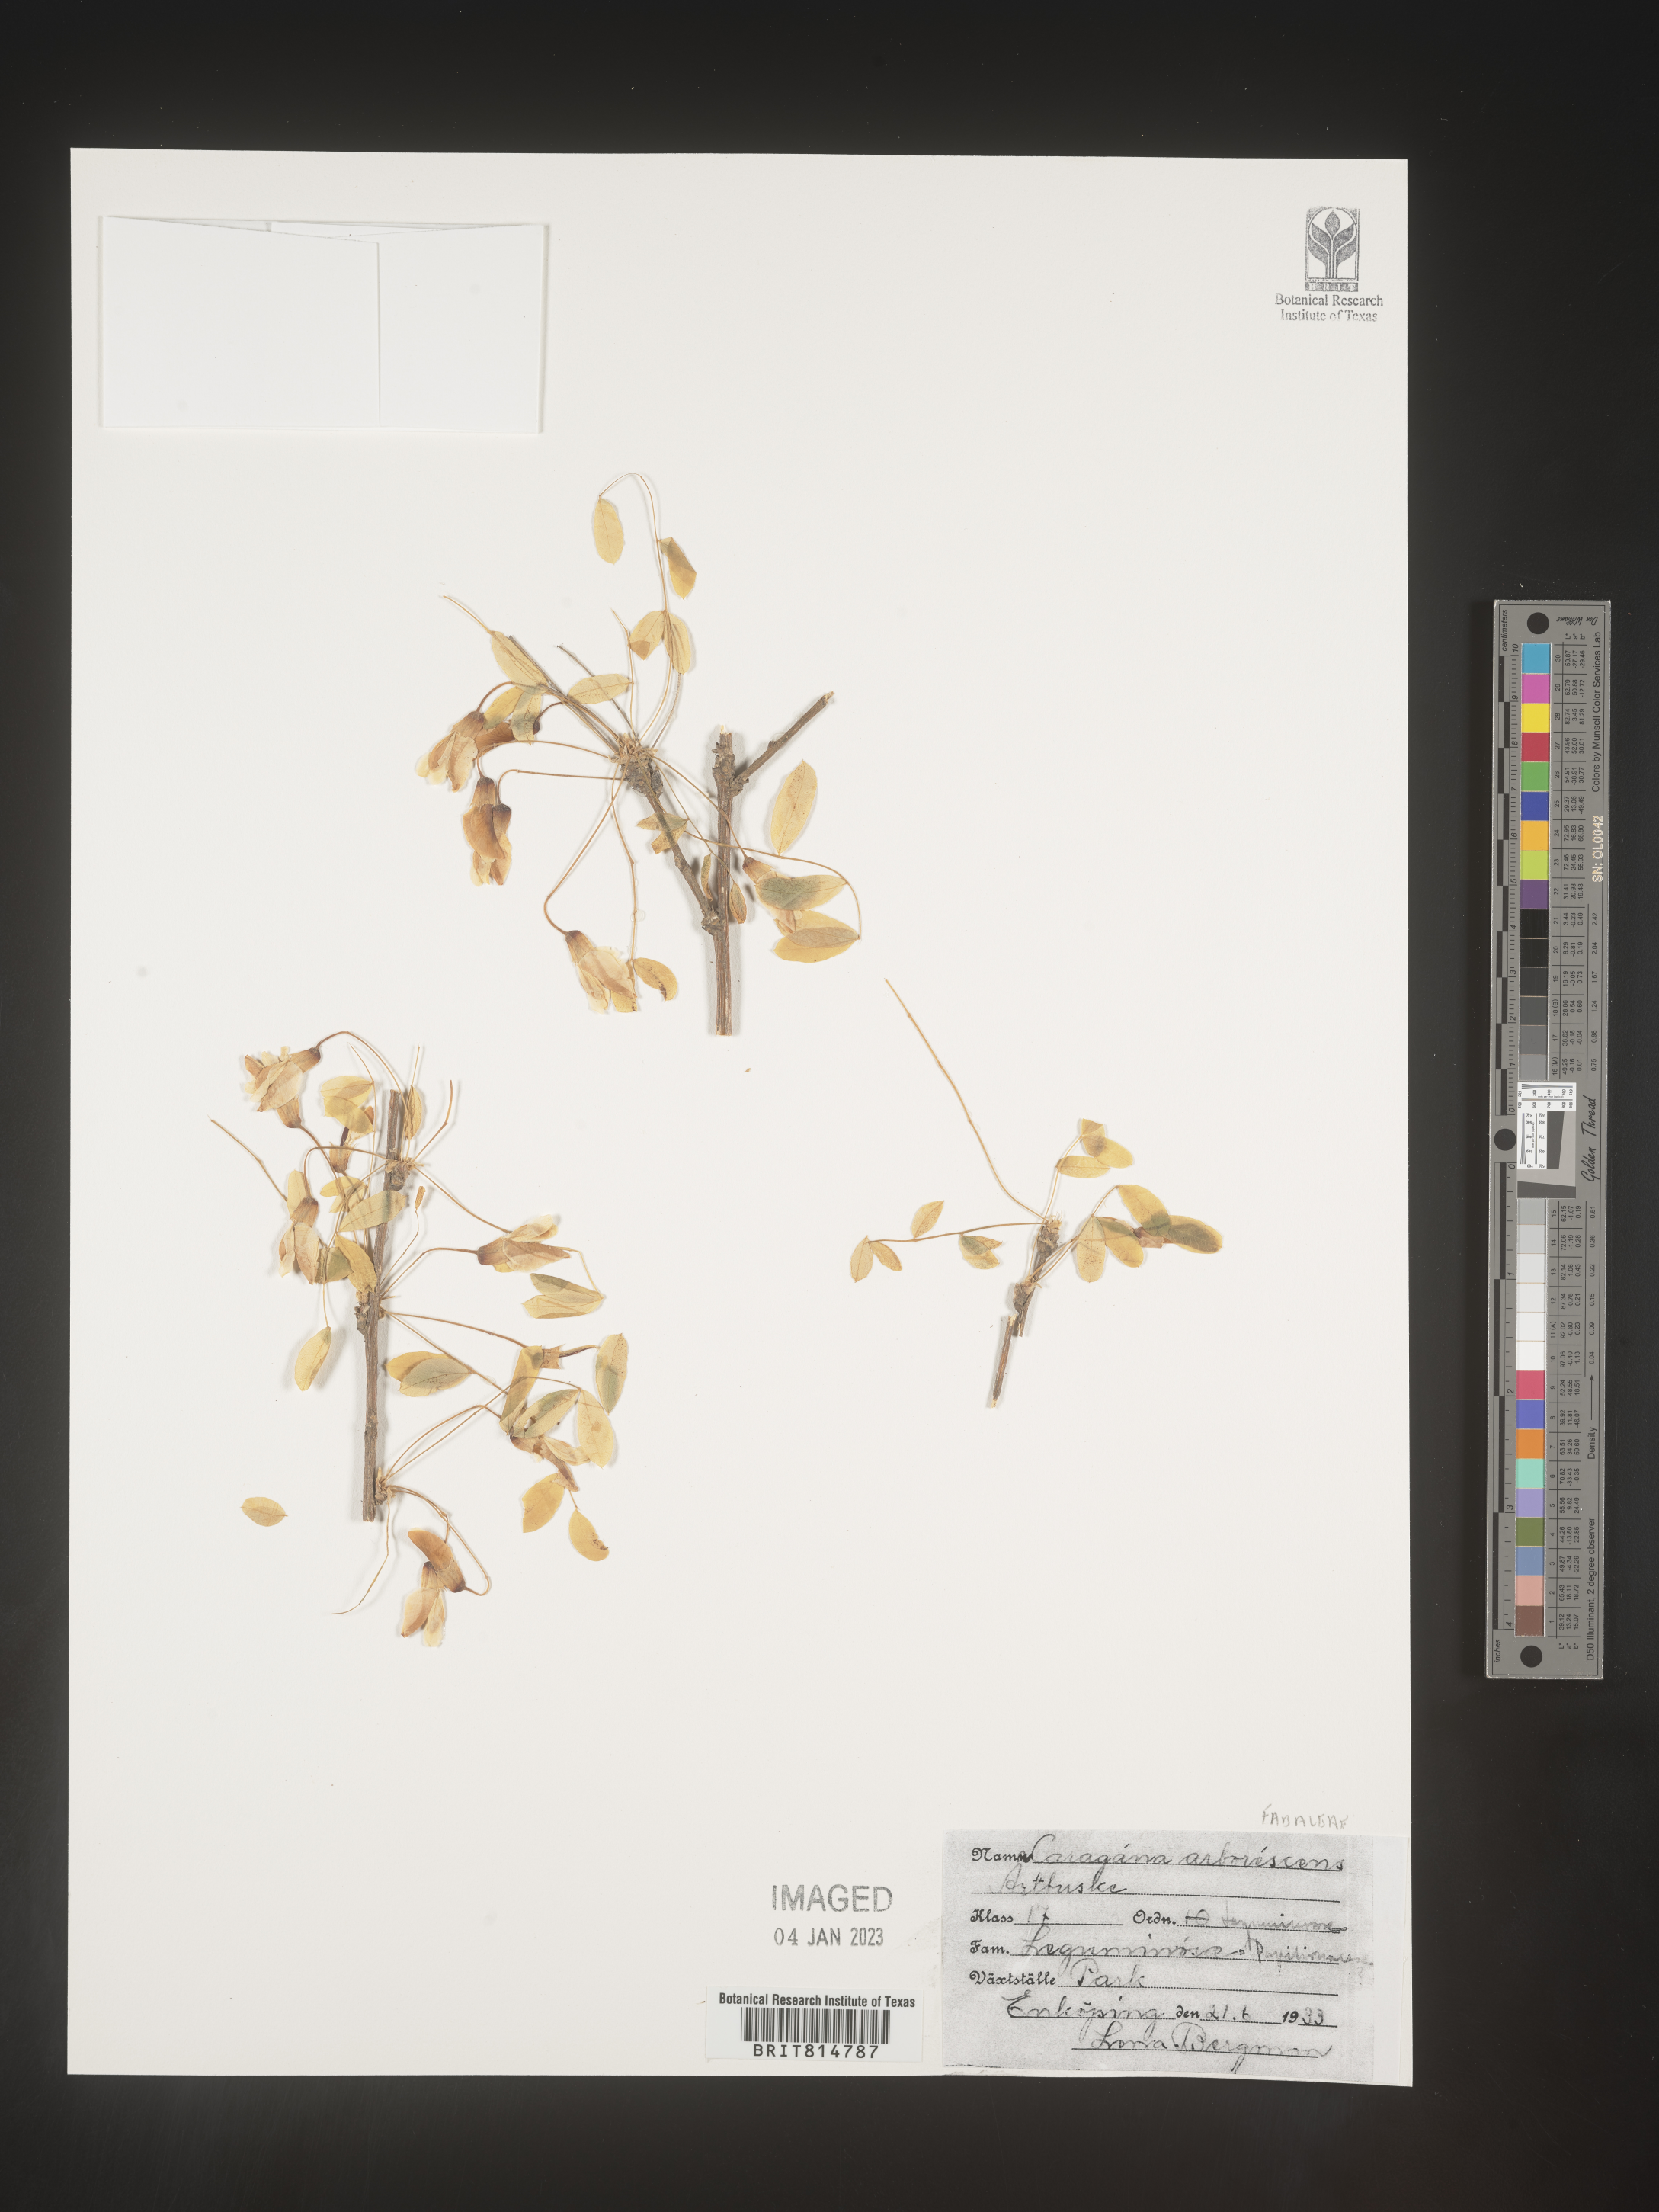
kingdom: Plantae
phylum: Tracheophyta
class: Magnoliopsida
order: Fabales
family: Fabaceae
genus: Caragana
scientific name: Caragana
